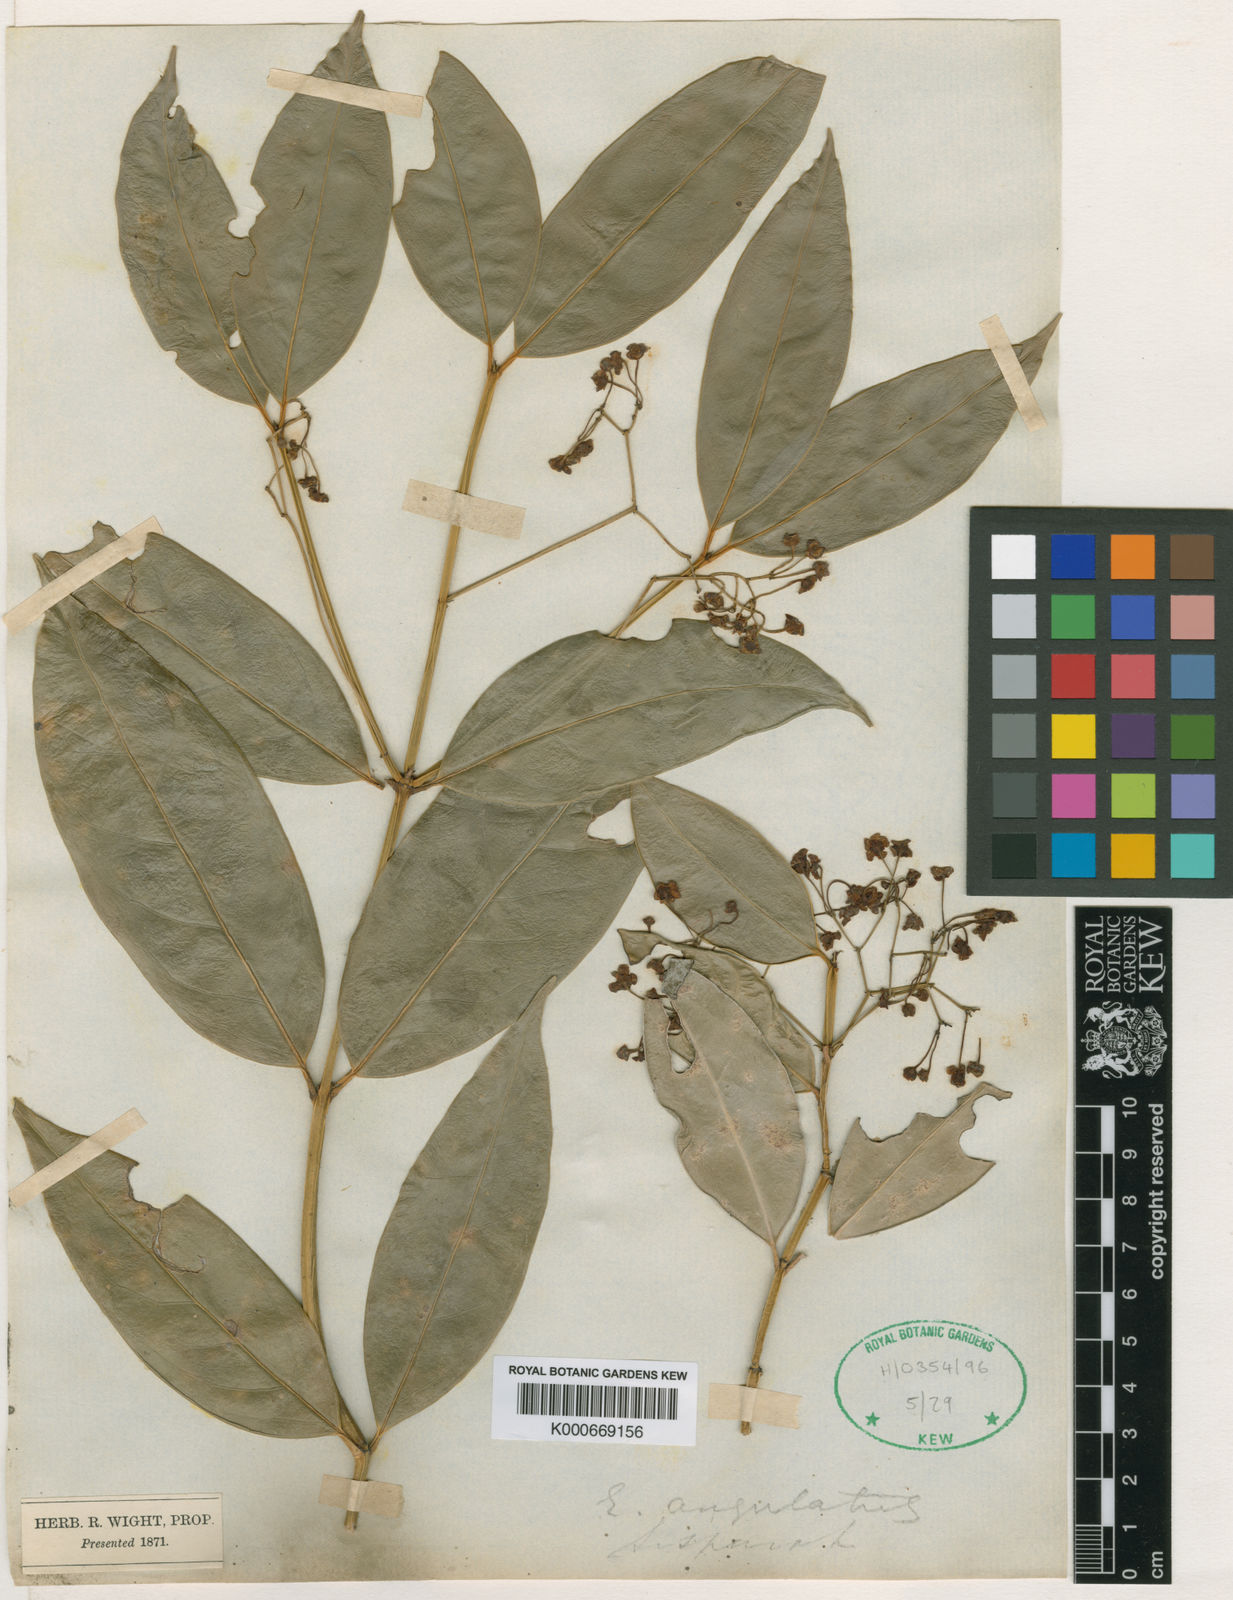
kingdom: Plantae
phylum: Tracheophyta
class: Magnoliopsida
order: Celastrales
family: Celastraceae
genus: Euonymus
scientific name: Euonymus angulatus
